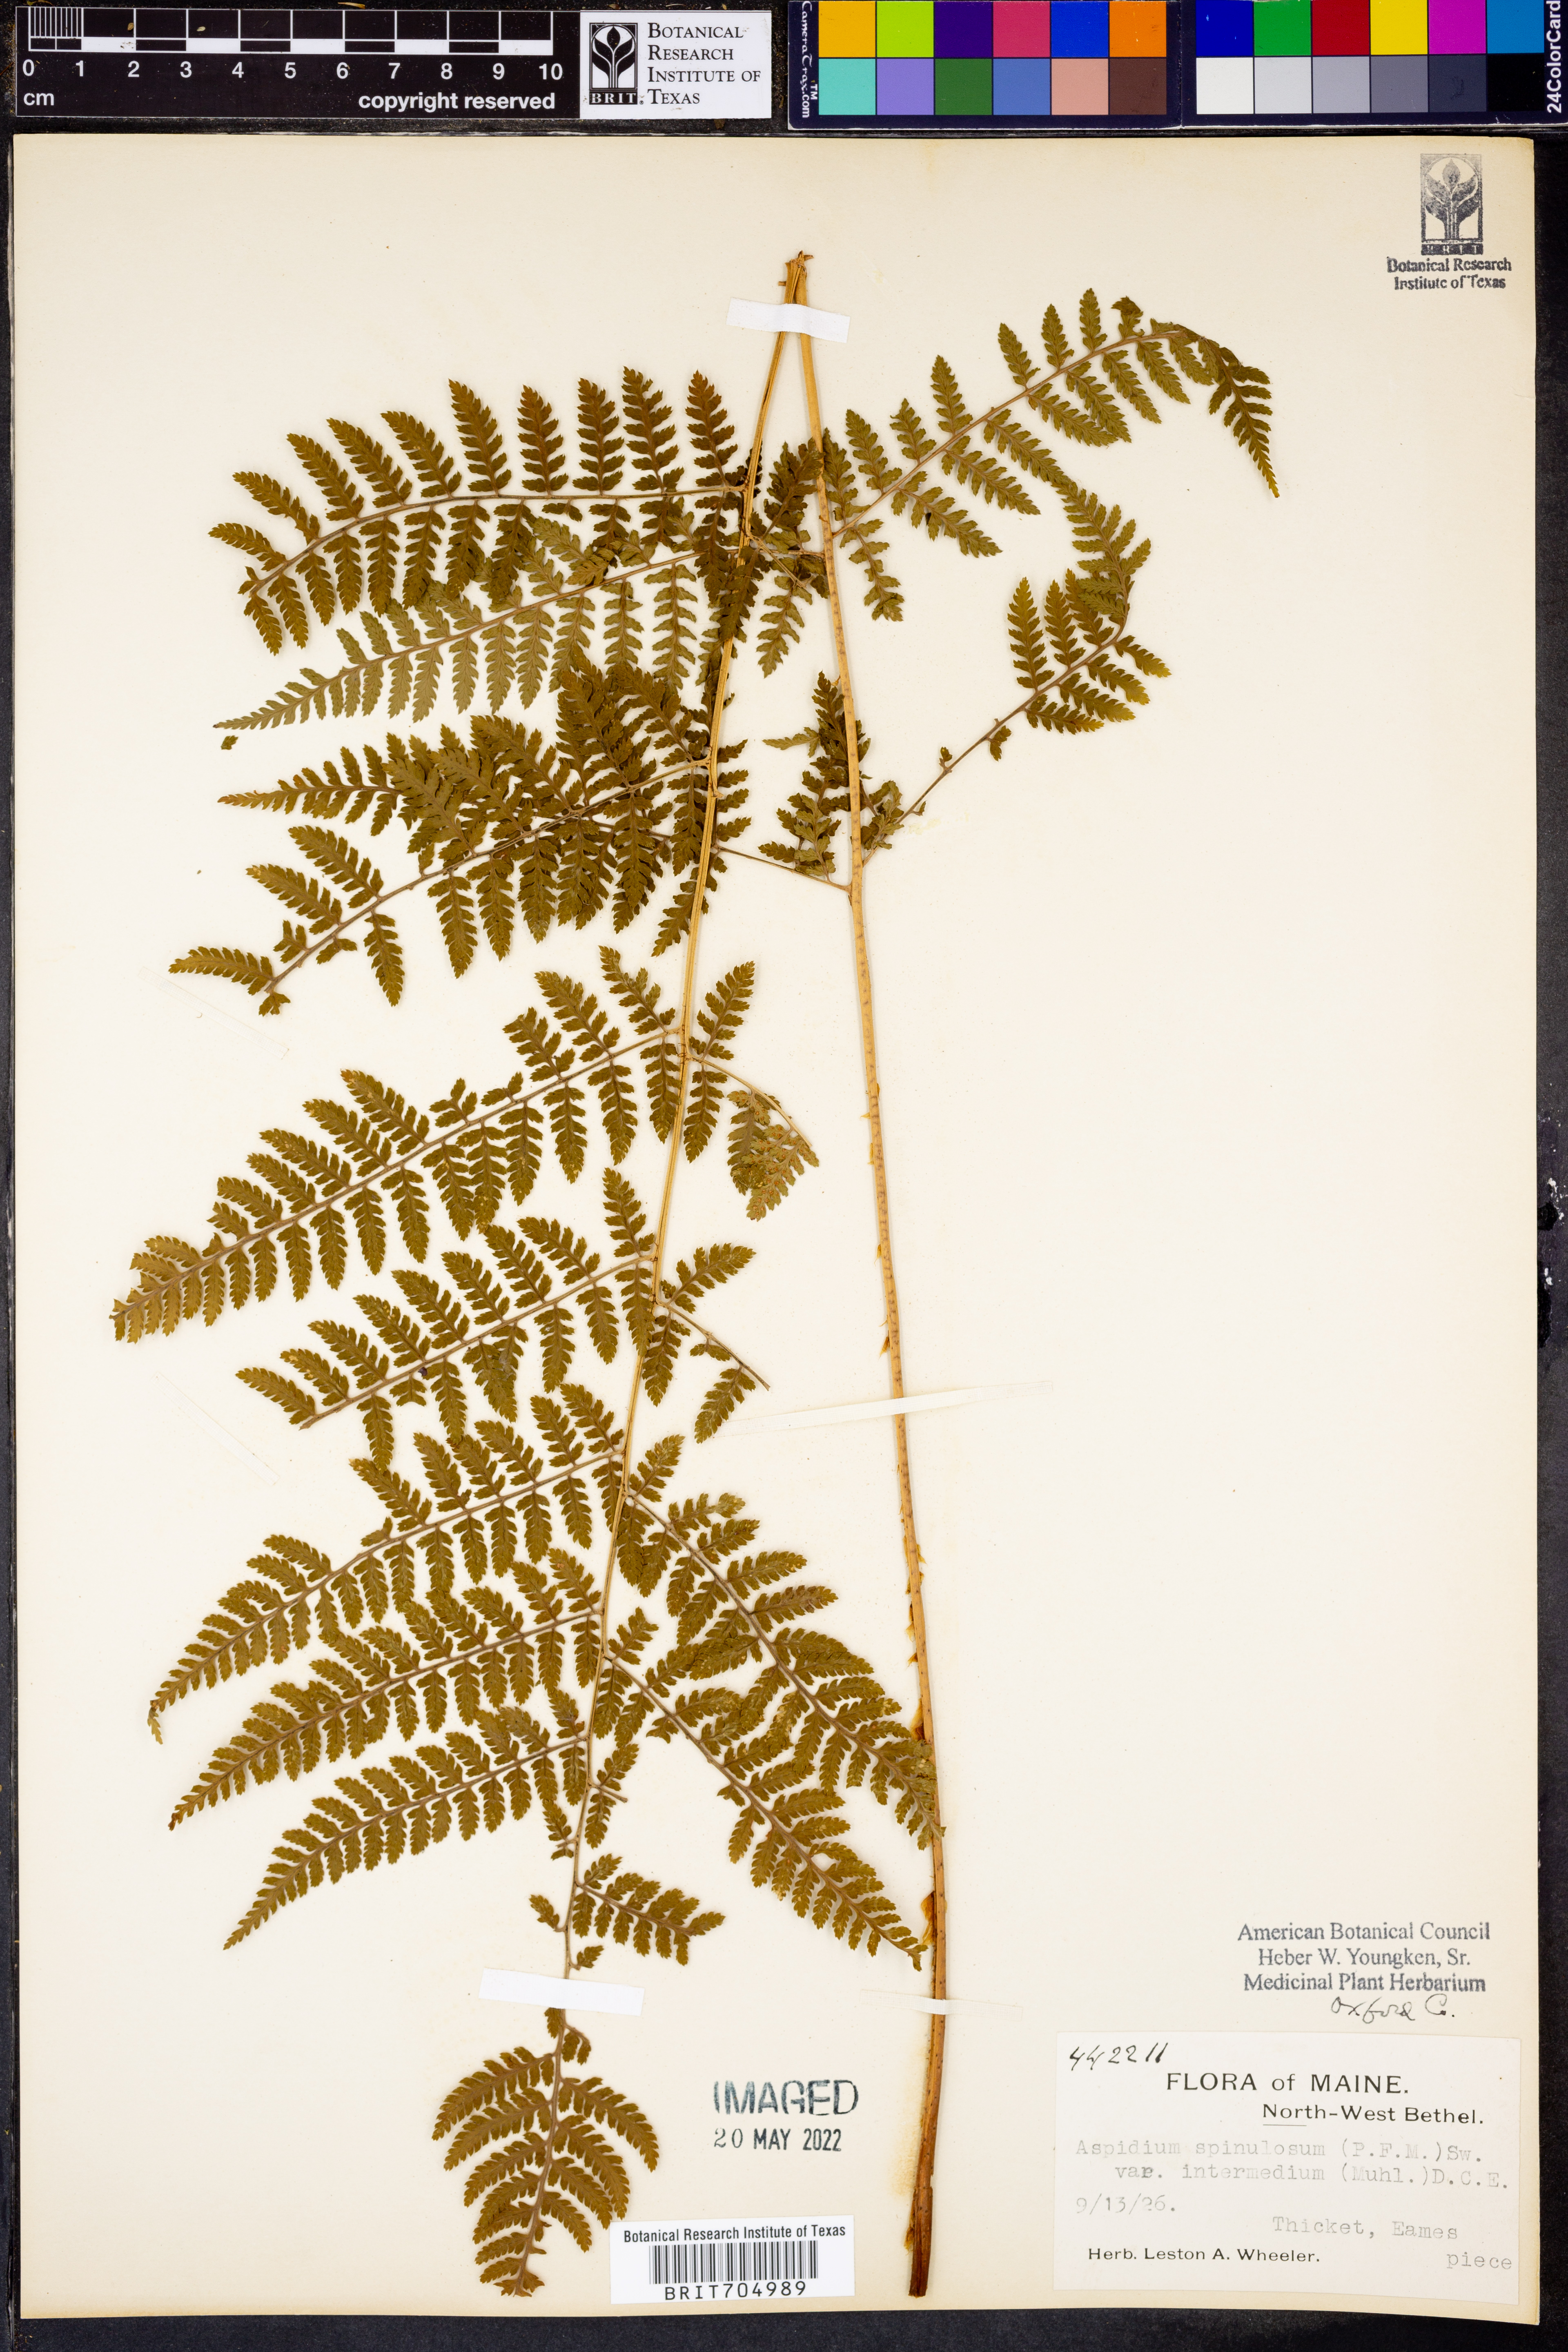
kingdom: Plantae
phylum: Tracheophyta
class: Polypodiopsida
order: Polypodiales
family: Dryopteridaceae
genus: Dryopteris
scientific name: Dryopteris intermedia
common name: Evergreen wood fern
